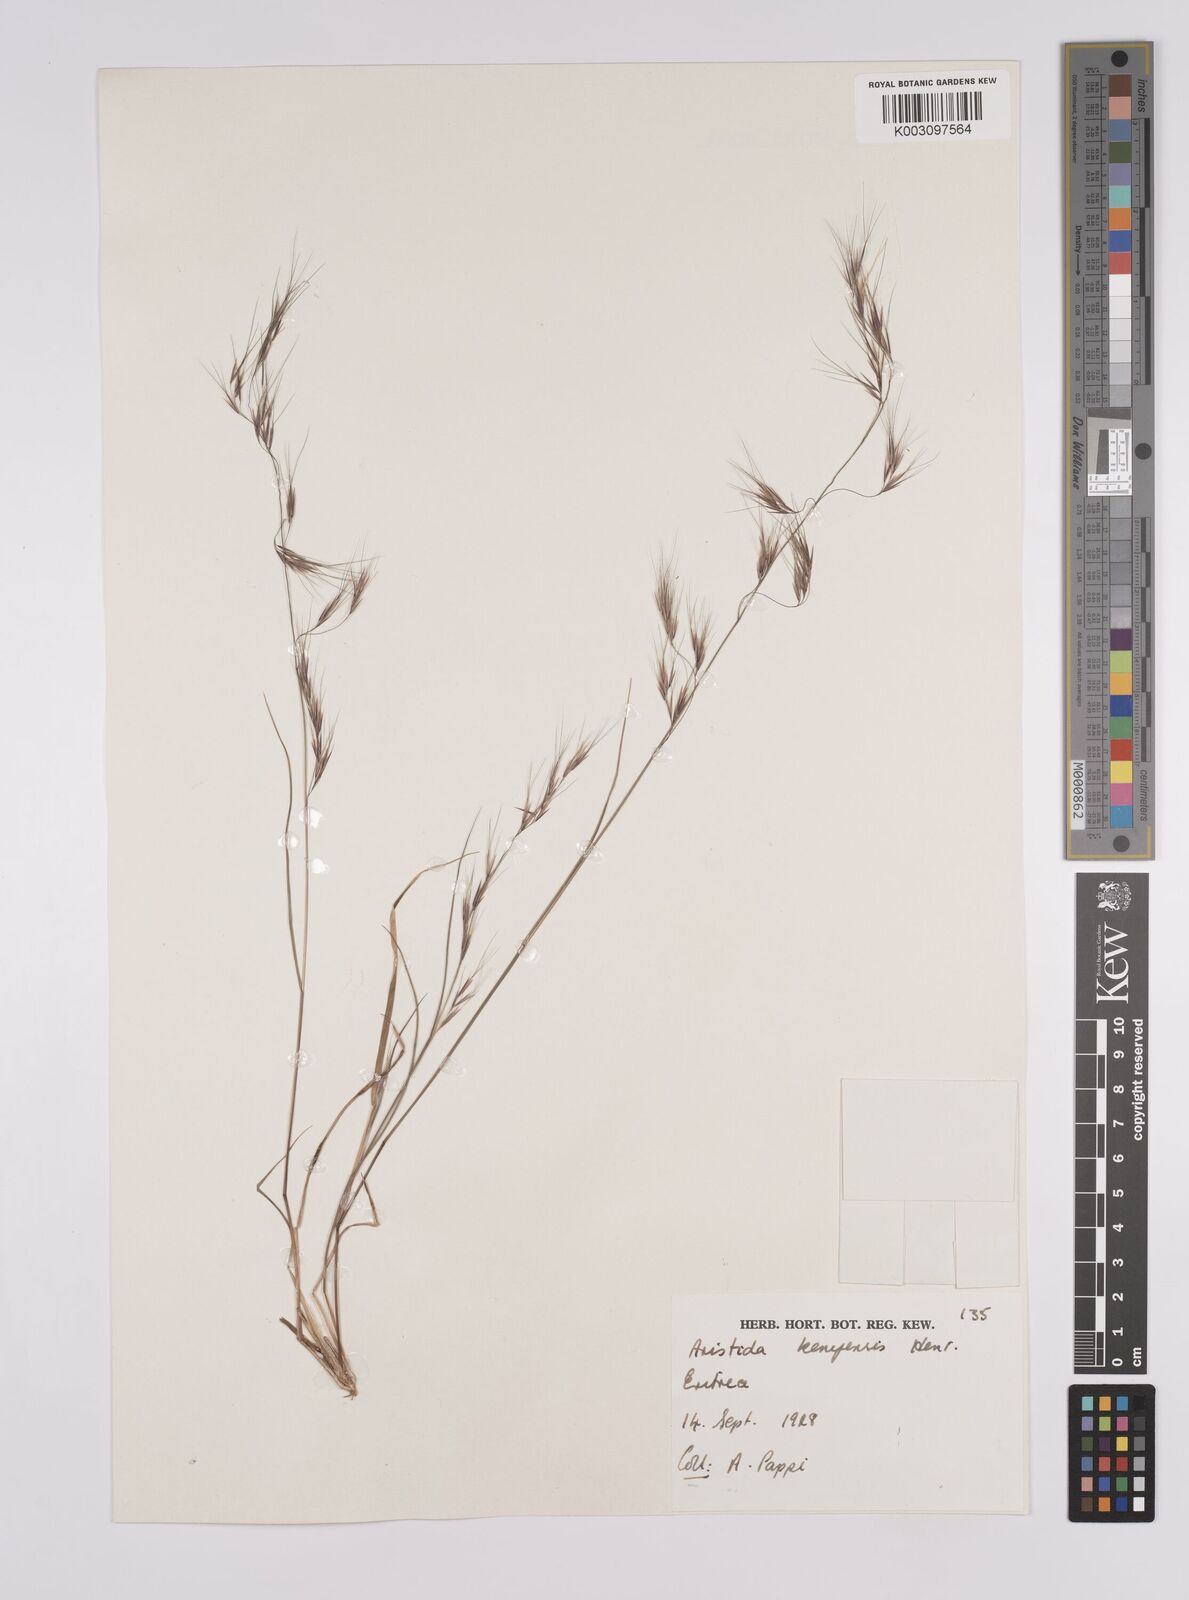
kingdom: Plantae
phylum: Tracheophyta
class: Liliopsida
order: Poales
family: Poaceae
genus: Aristida
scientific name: Aristida kenyensis
